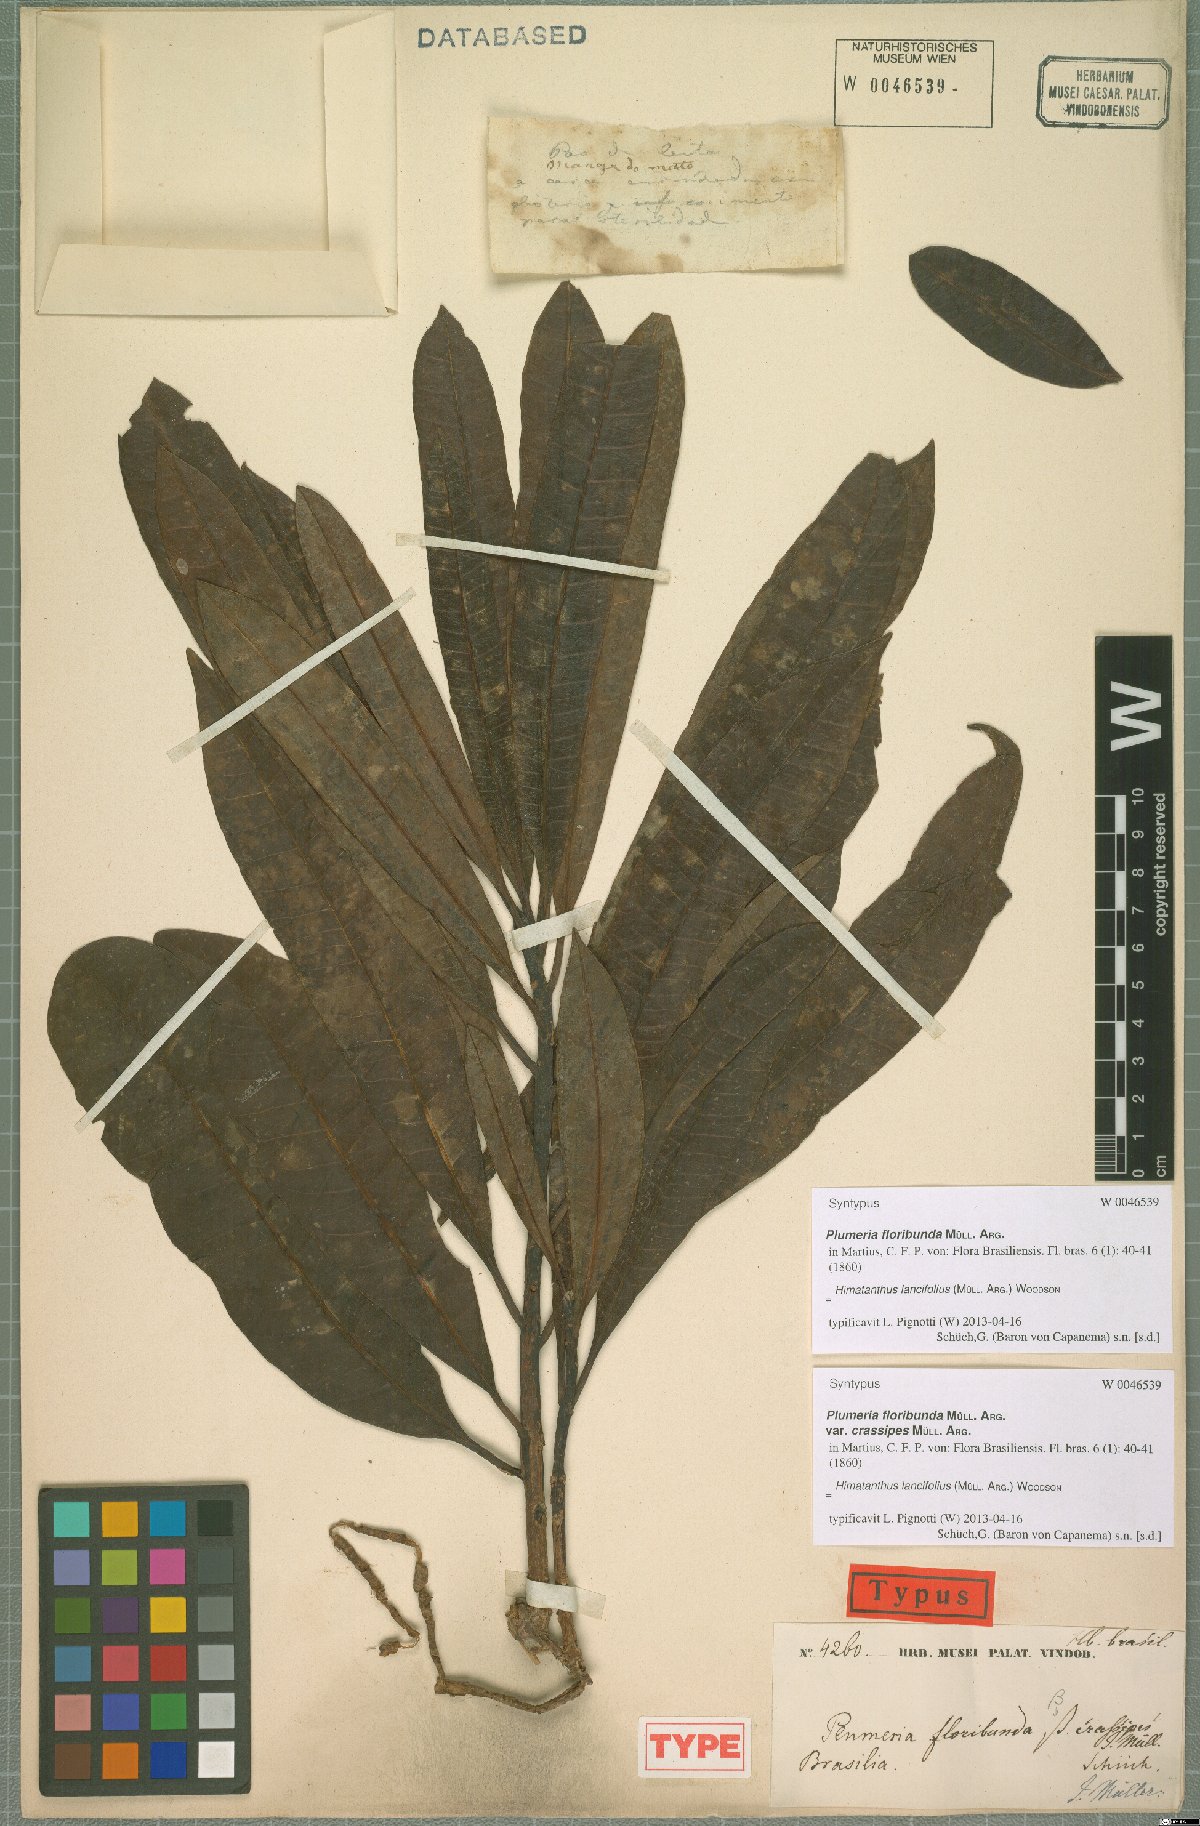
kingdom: Plantae
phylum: Tracheophyta
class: Magnoliopsida
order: Gentianales
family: Apocynaceae
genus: Himatanthus
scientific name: Himatanthus bracteatus
